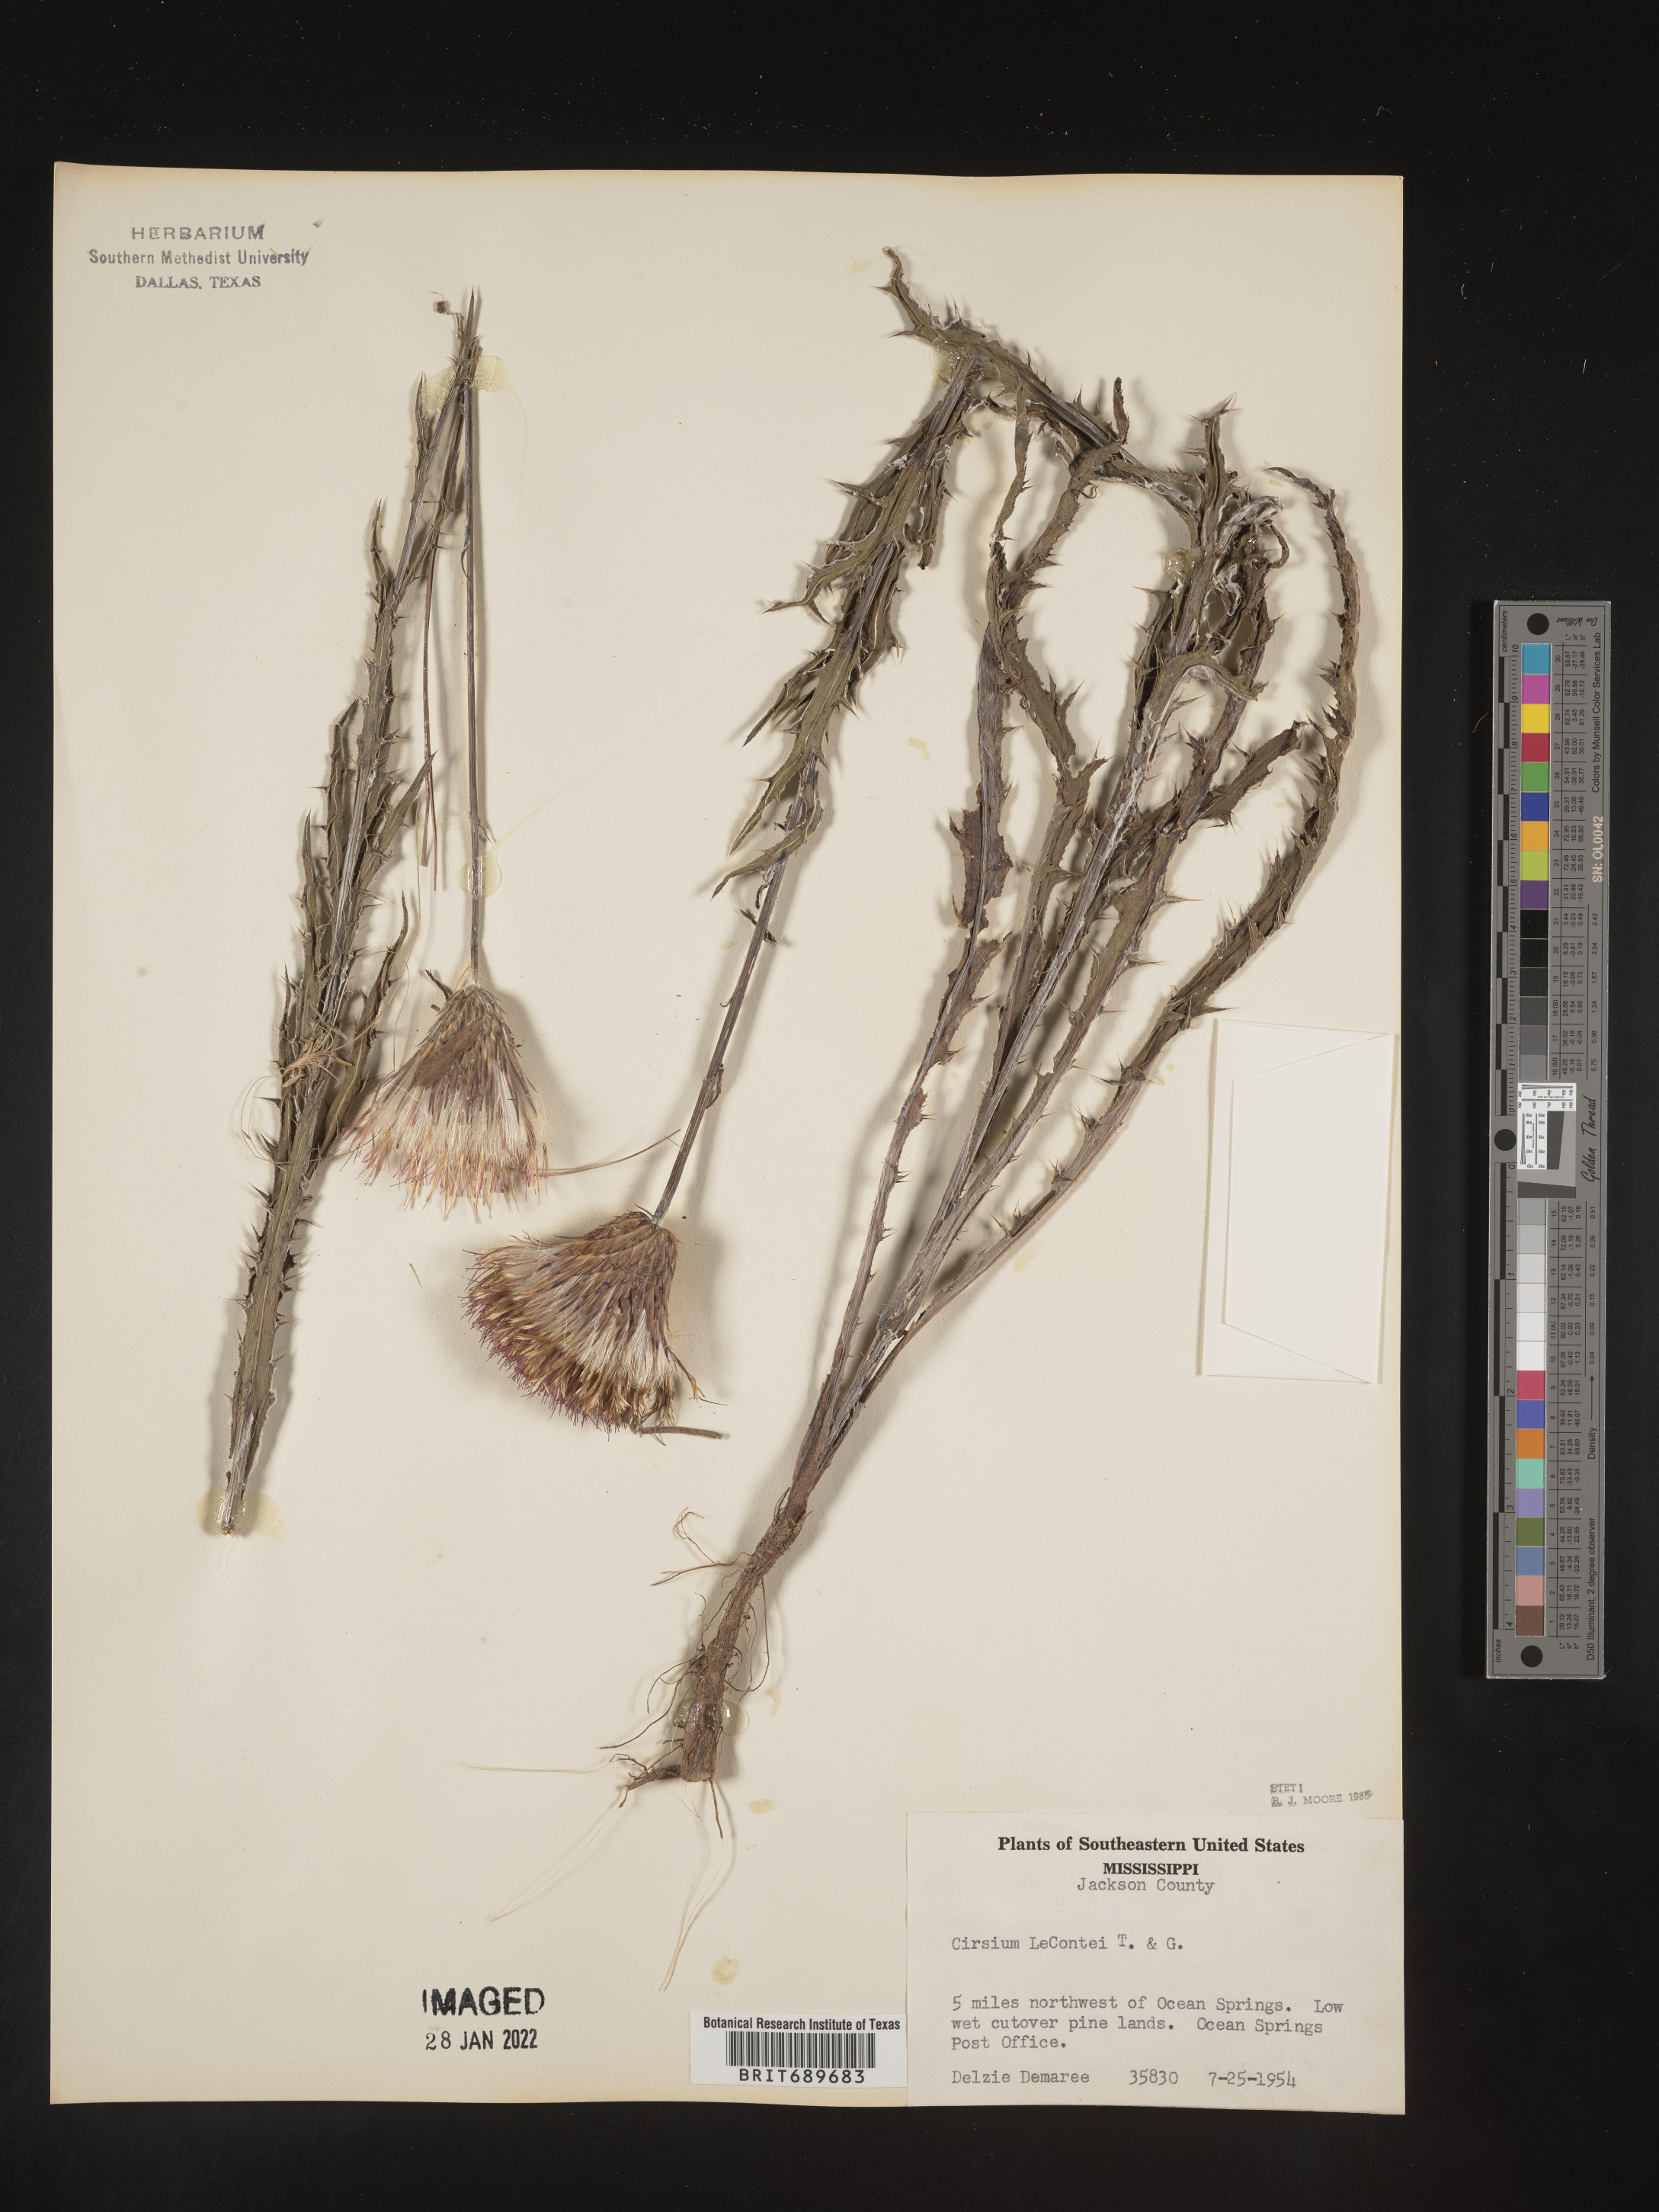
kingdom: Plantae
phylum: Tracheophyta
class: Magnoliopsida
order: Asterales
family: Asteraceae
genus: Cirsium
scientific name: Cirsium lecontei
